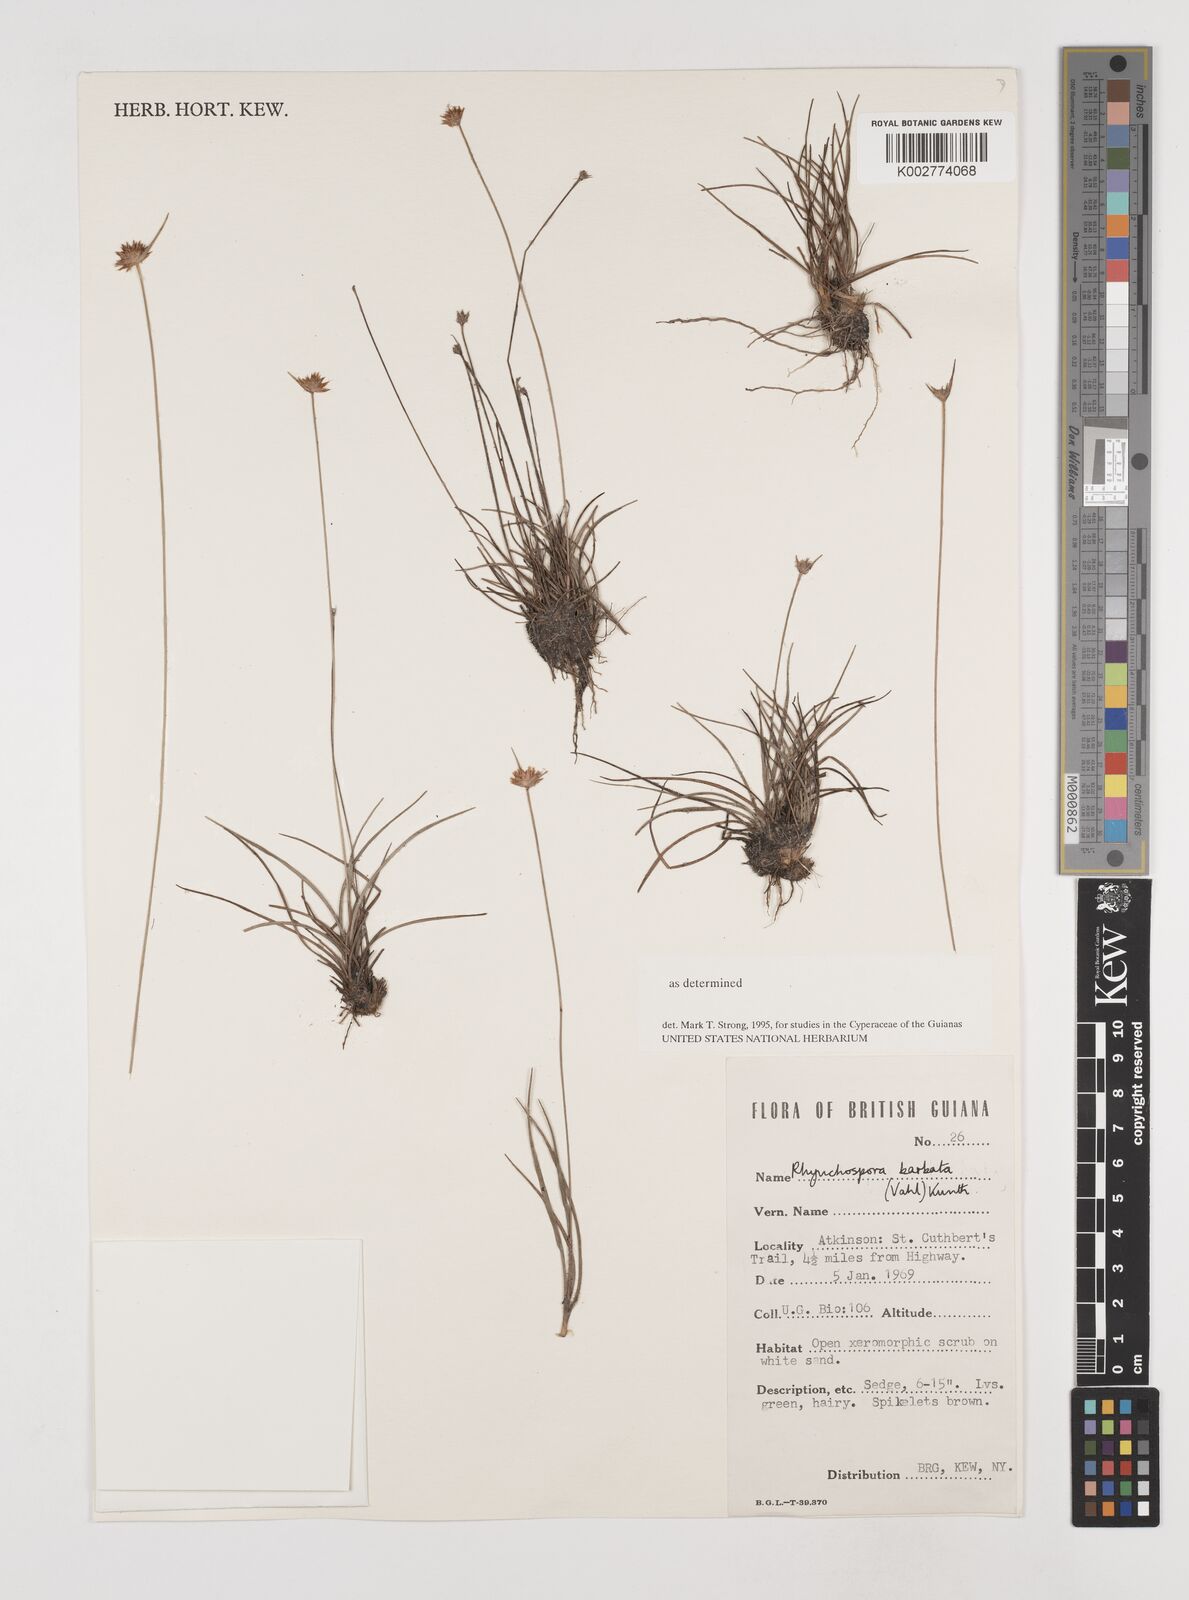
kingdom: Plantae
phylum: Tracheophyta
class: Liliopsida
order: Poales
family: Cyperaceae
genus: Rhynchospora
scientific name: Rhynchospora barbata
